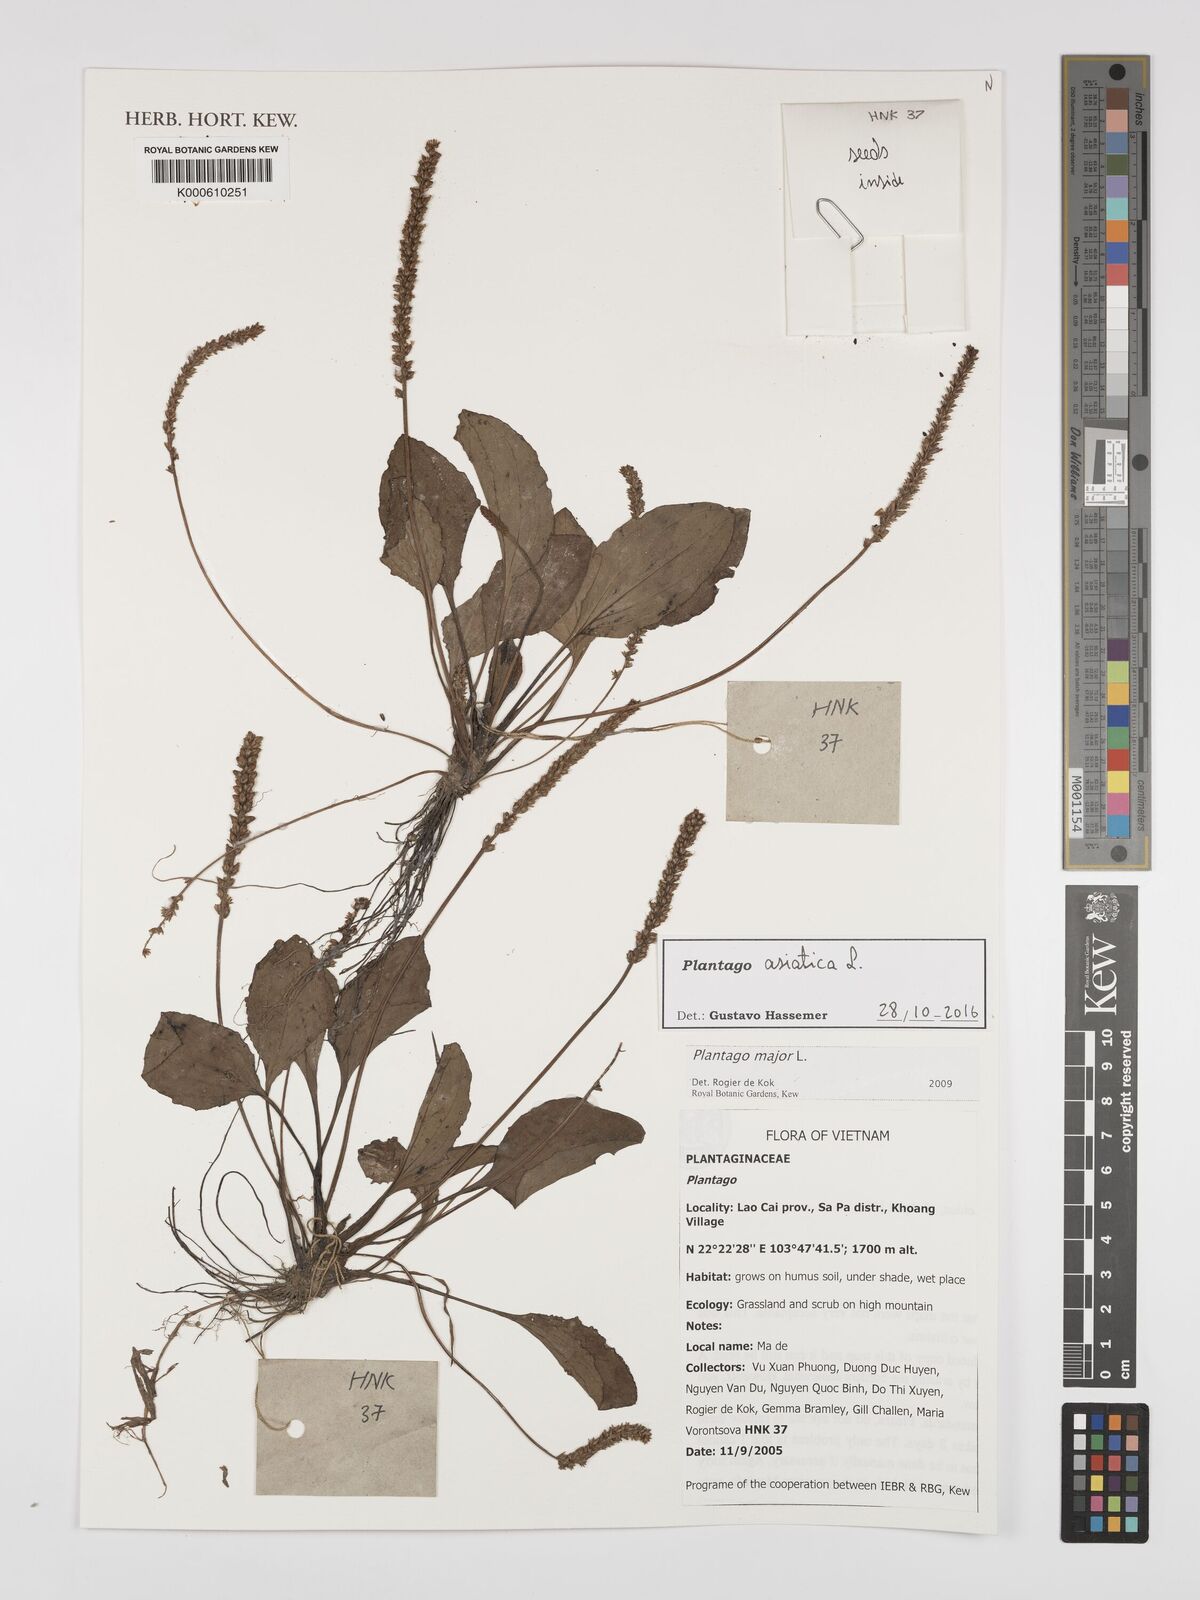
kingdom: Plantae
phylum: Tracheophyta
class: Magnoliopsida
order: Lamiales
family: Plantaginaceae
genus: Plantago
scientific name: Plantago asiatica
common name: Psyllium
